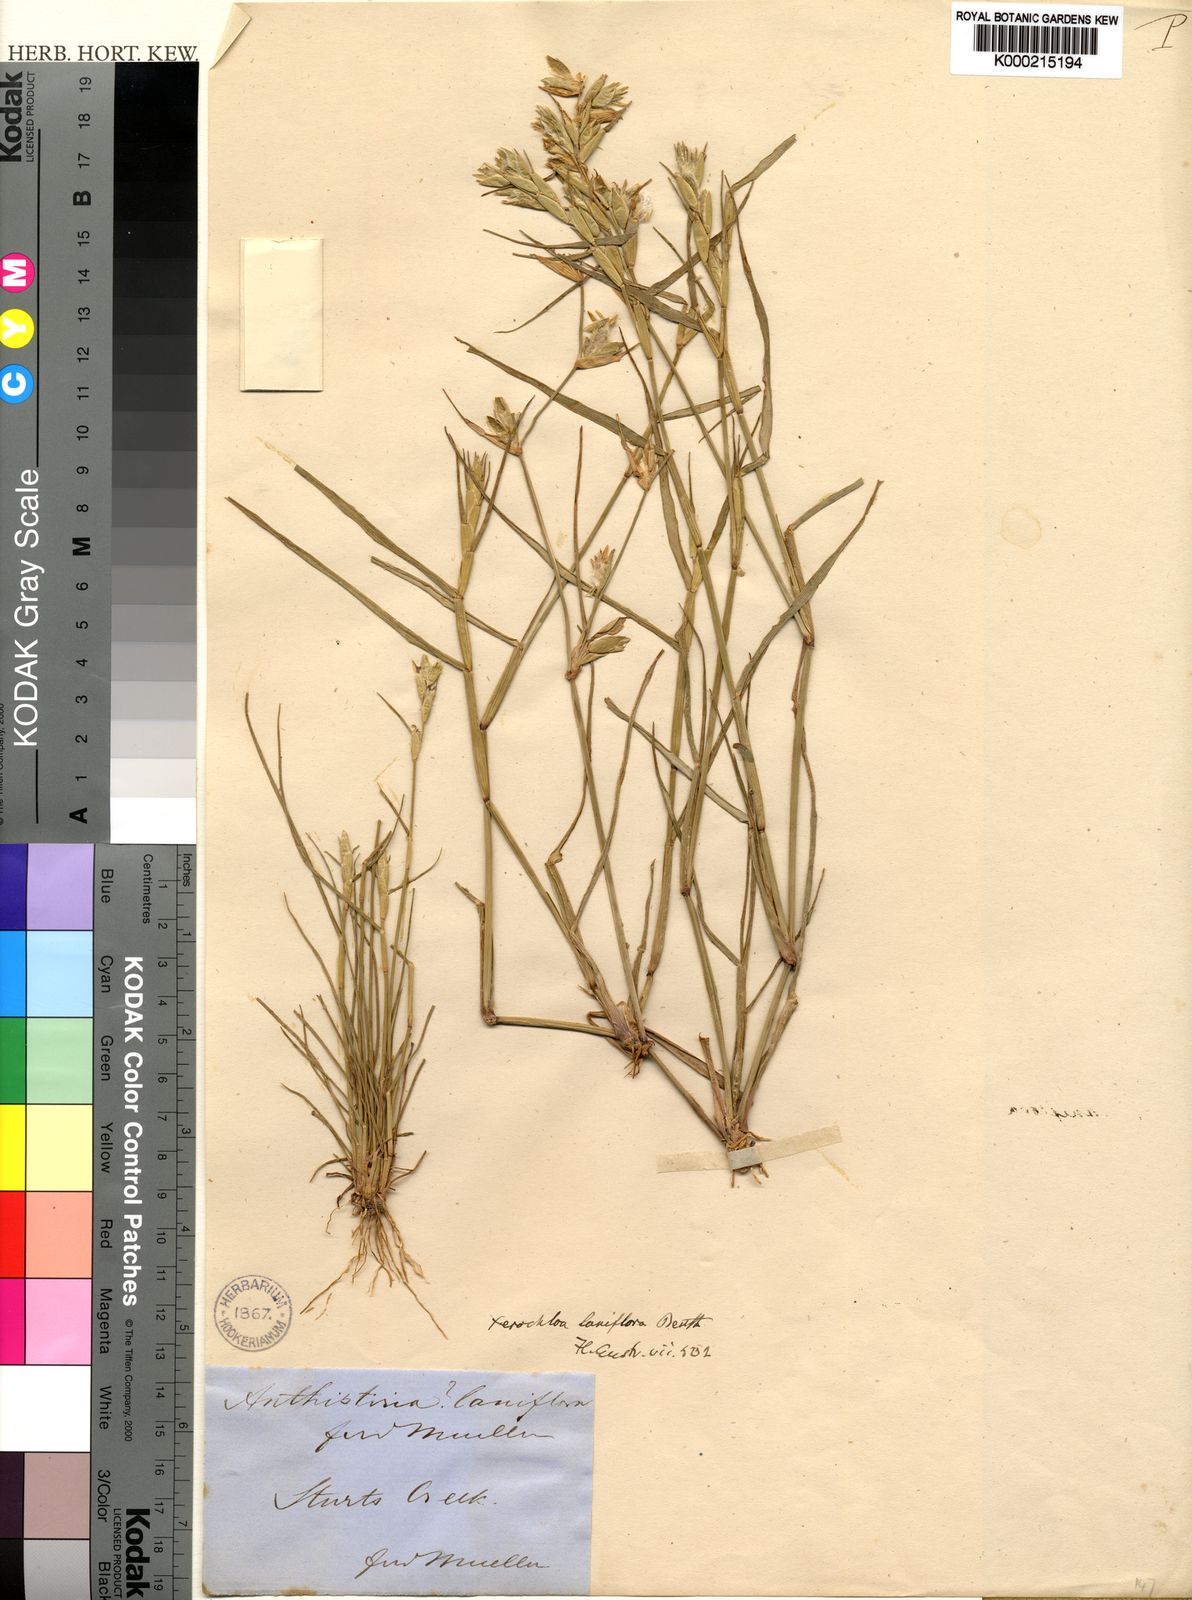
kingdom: Plantae
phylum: Tracheophyta
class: Liliopsida
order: Poales
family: Poaceae
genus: Xerochloa
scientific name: Xerochloa laniflora
